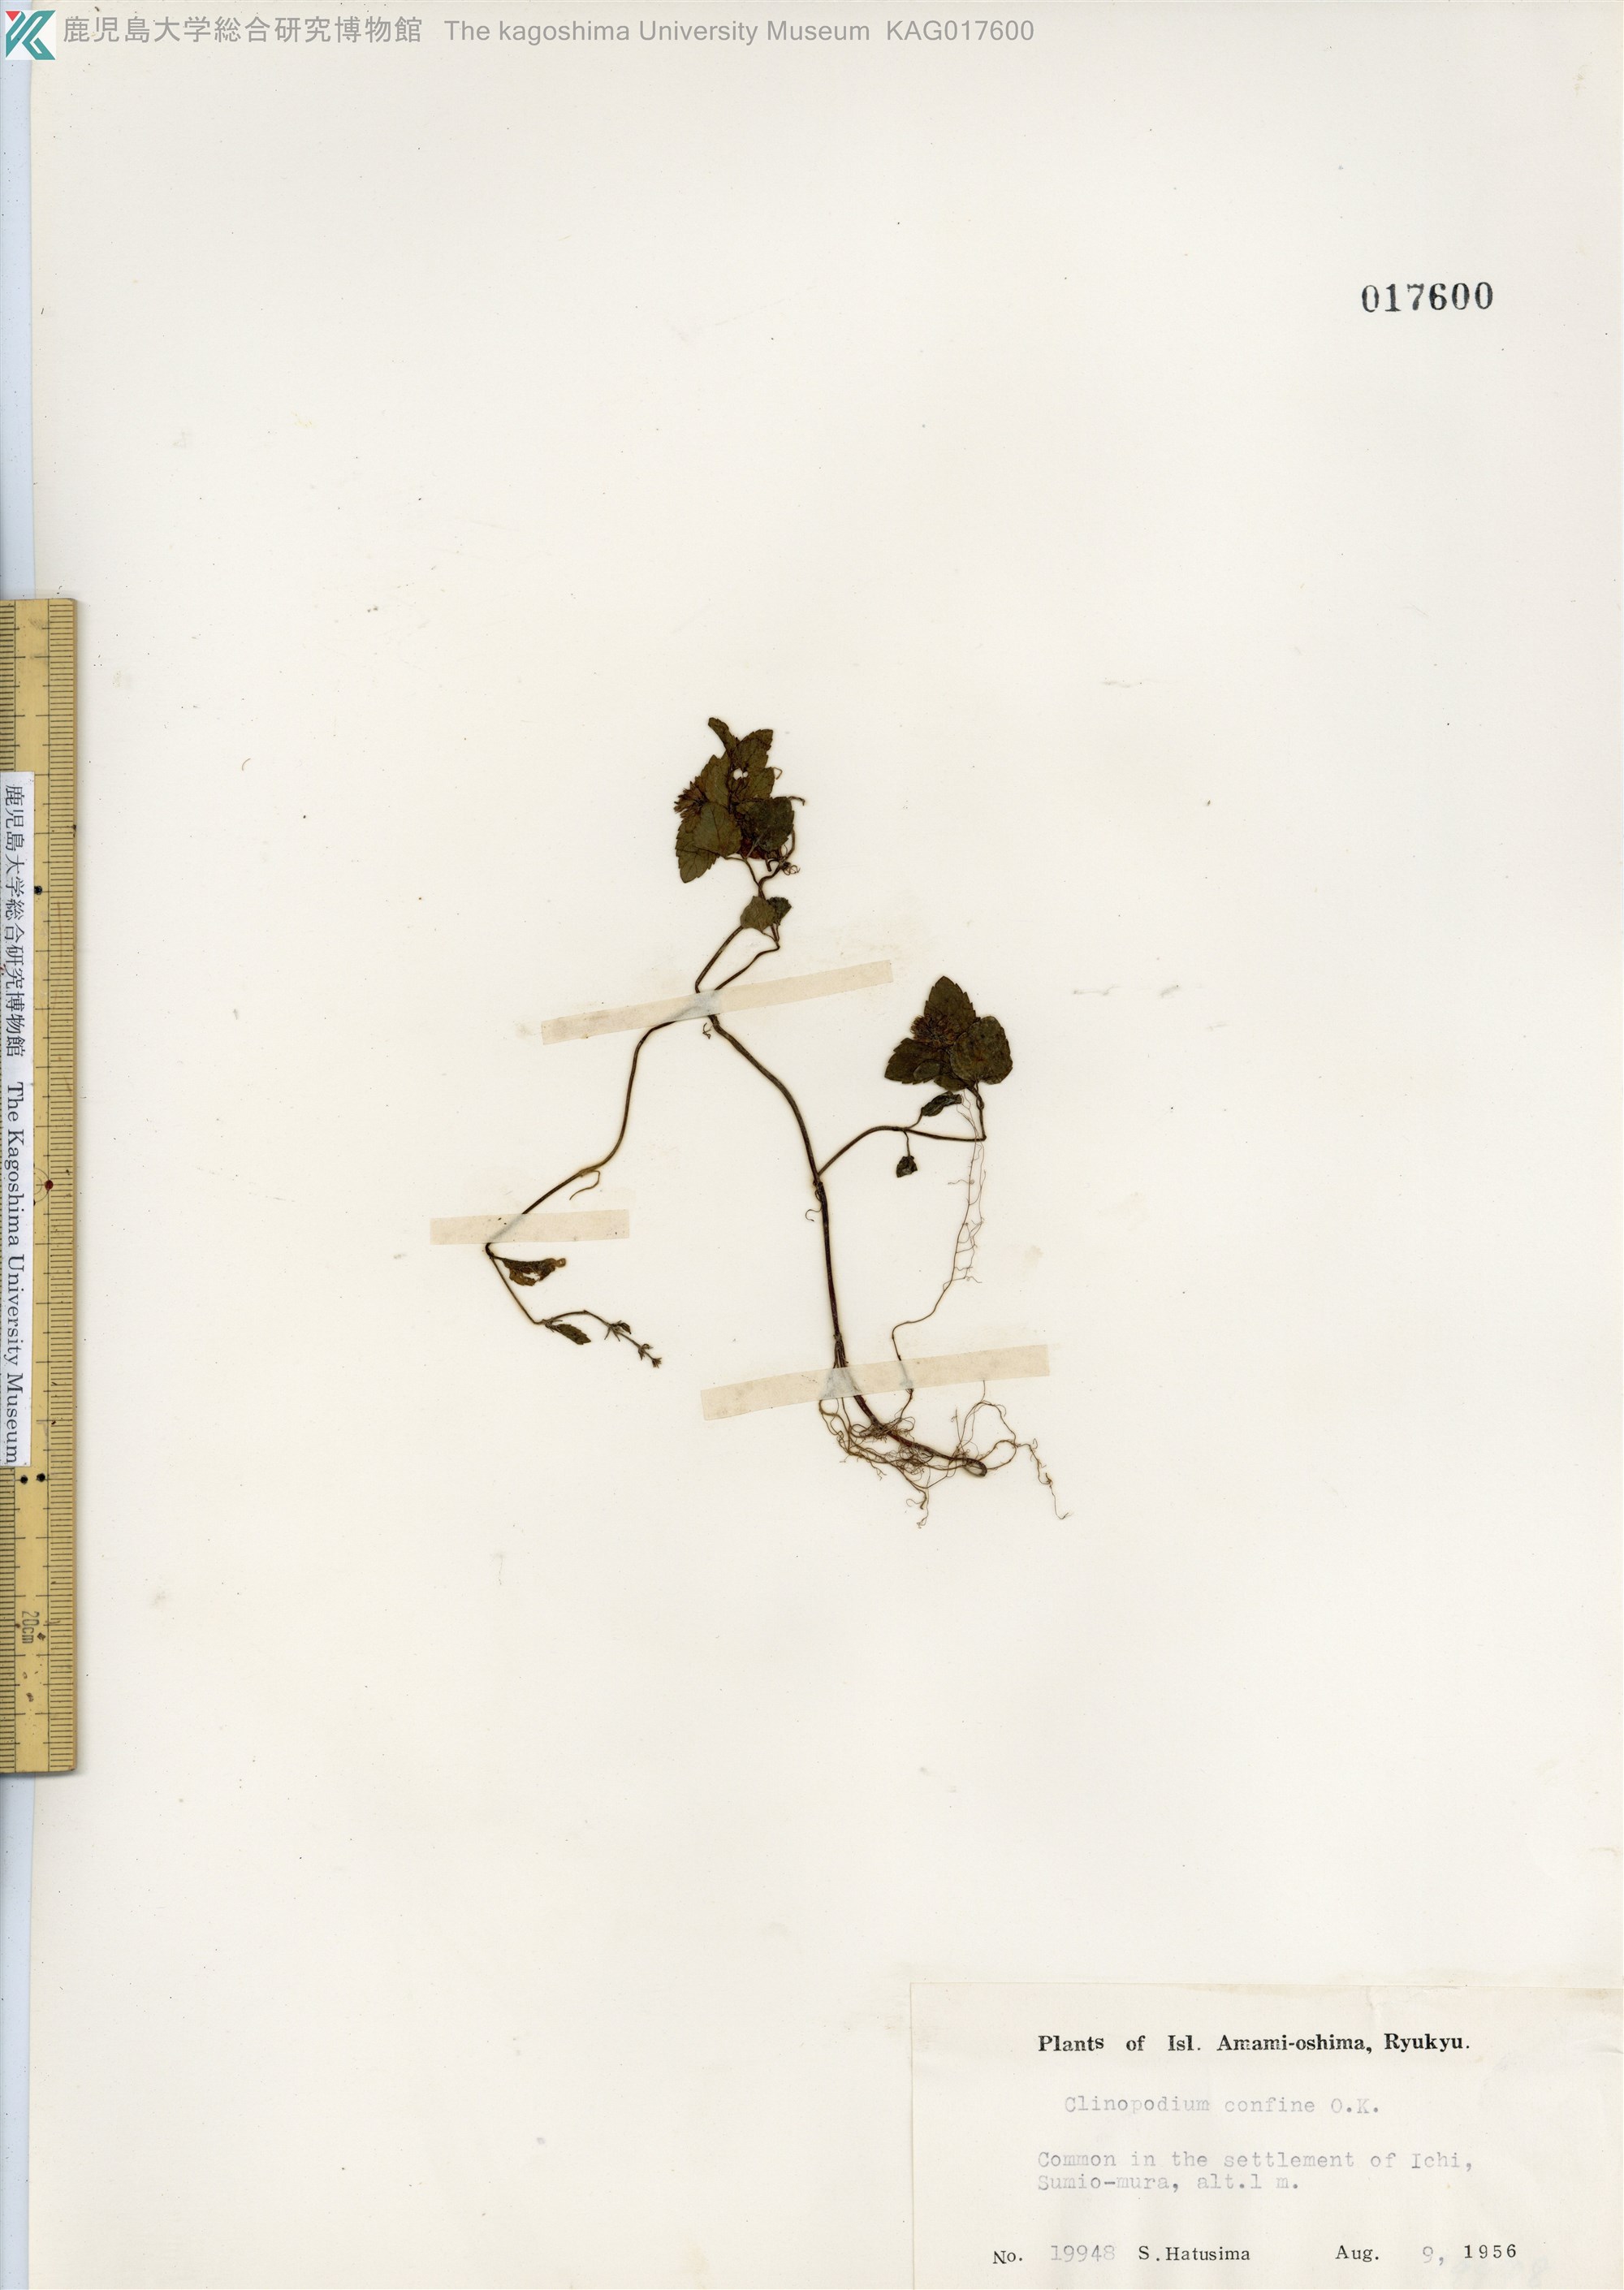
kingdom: Plantae
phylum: Tracheophyta
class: Magnoliopsida
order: Lamiales
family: Lamiaceae
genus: Clinopodium
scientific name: Clinopodium gracile
